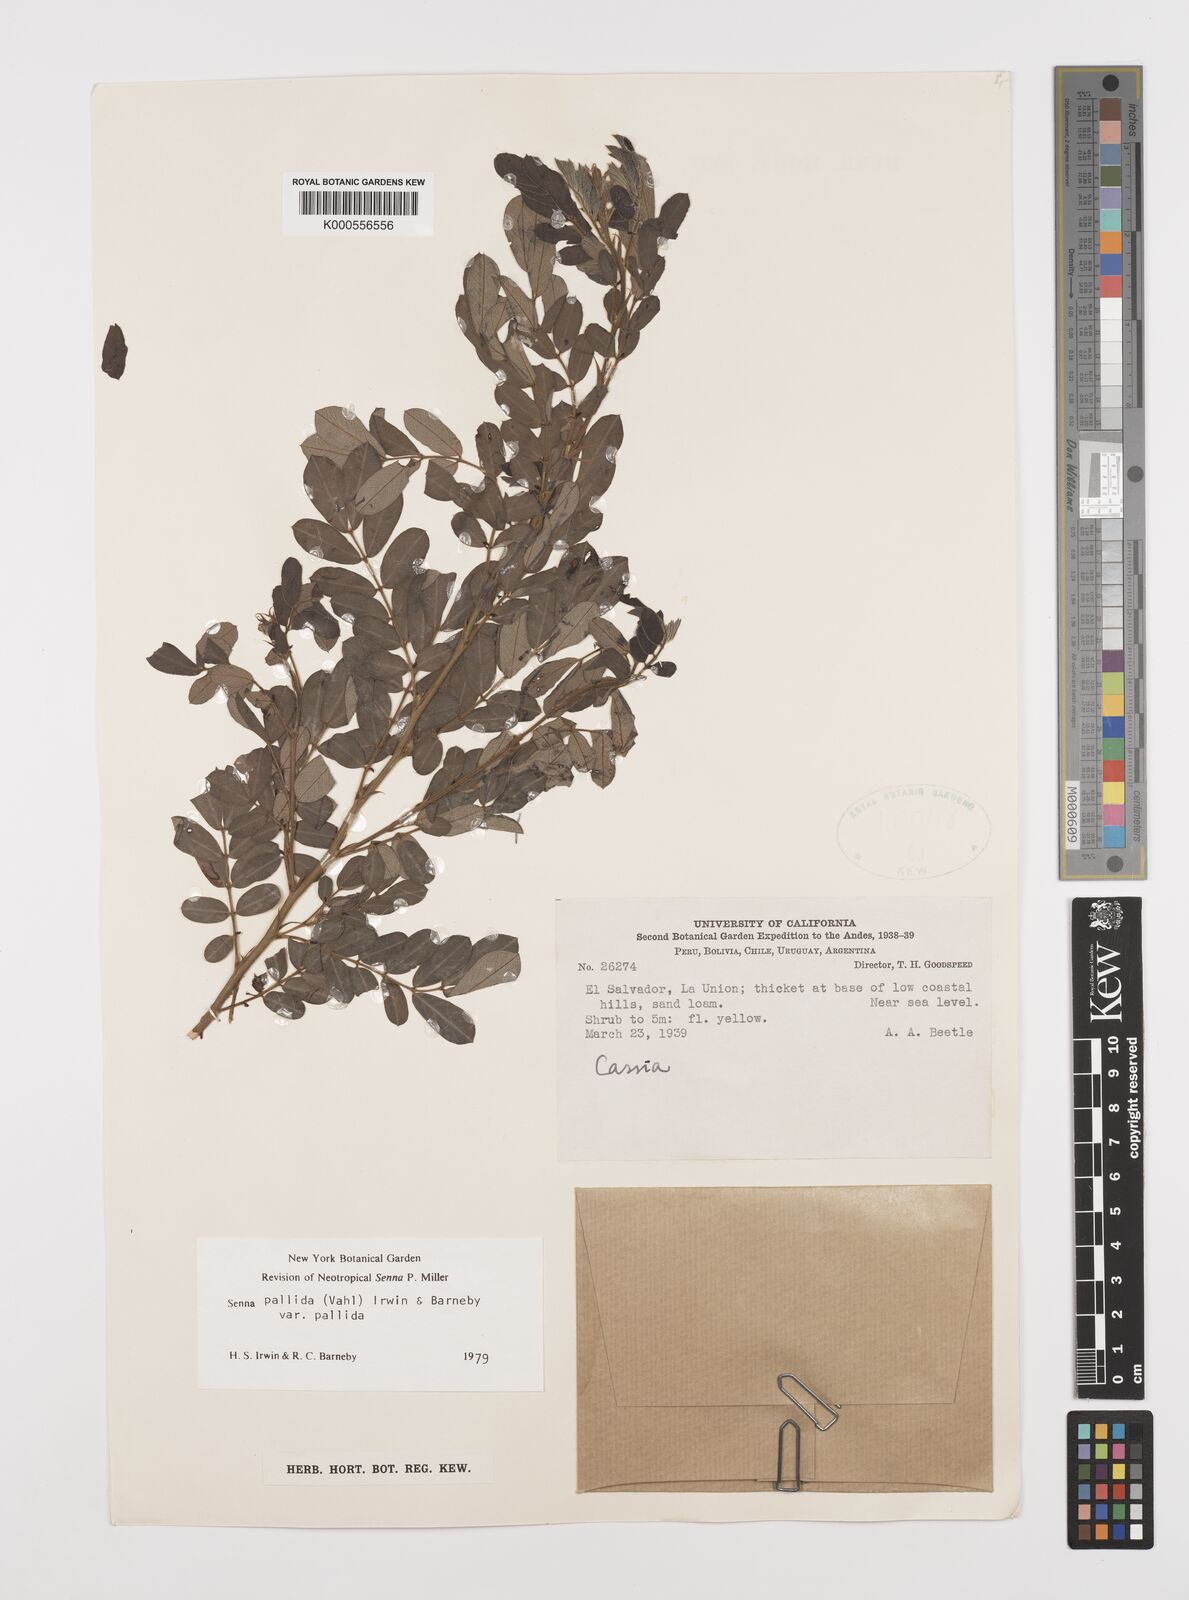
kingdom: Plantae
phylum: Tracheophyta
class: Magnoliopsida
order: Fabales
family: Fabaceae
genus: Senna
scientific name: Senna pallida
